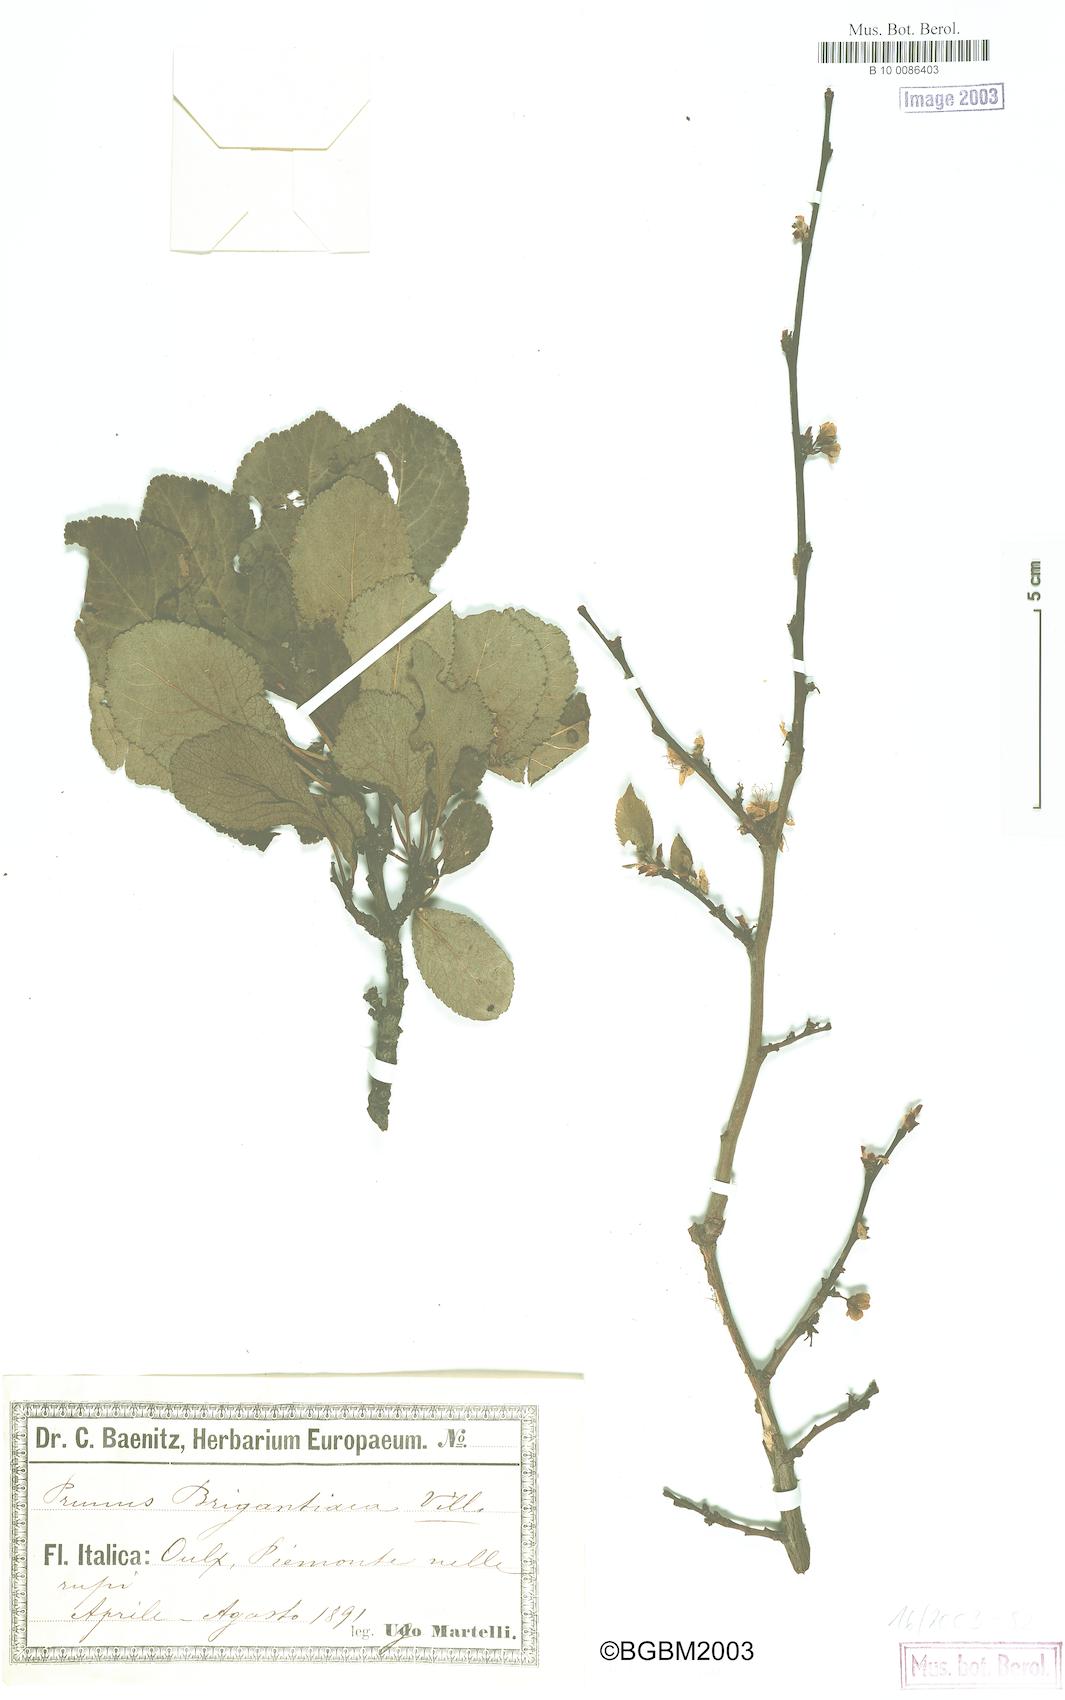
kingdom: Plantae
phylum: Tracheophyta
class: Magnoliopsida
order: Rosales
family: Rosaceae
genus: Prunus
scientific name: Prunus domestica
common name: Wild plum
